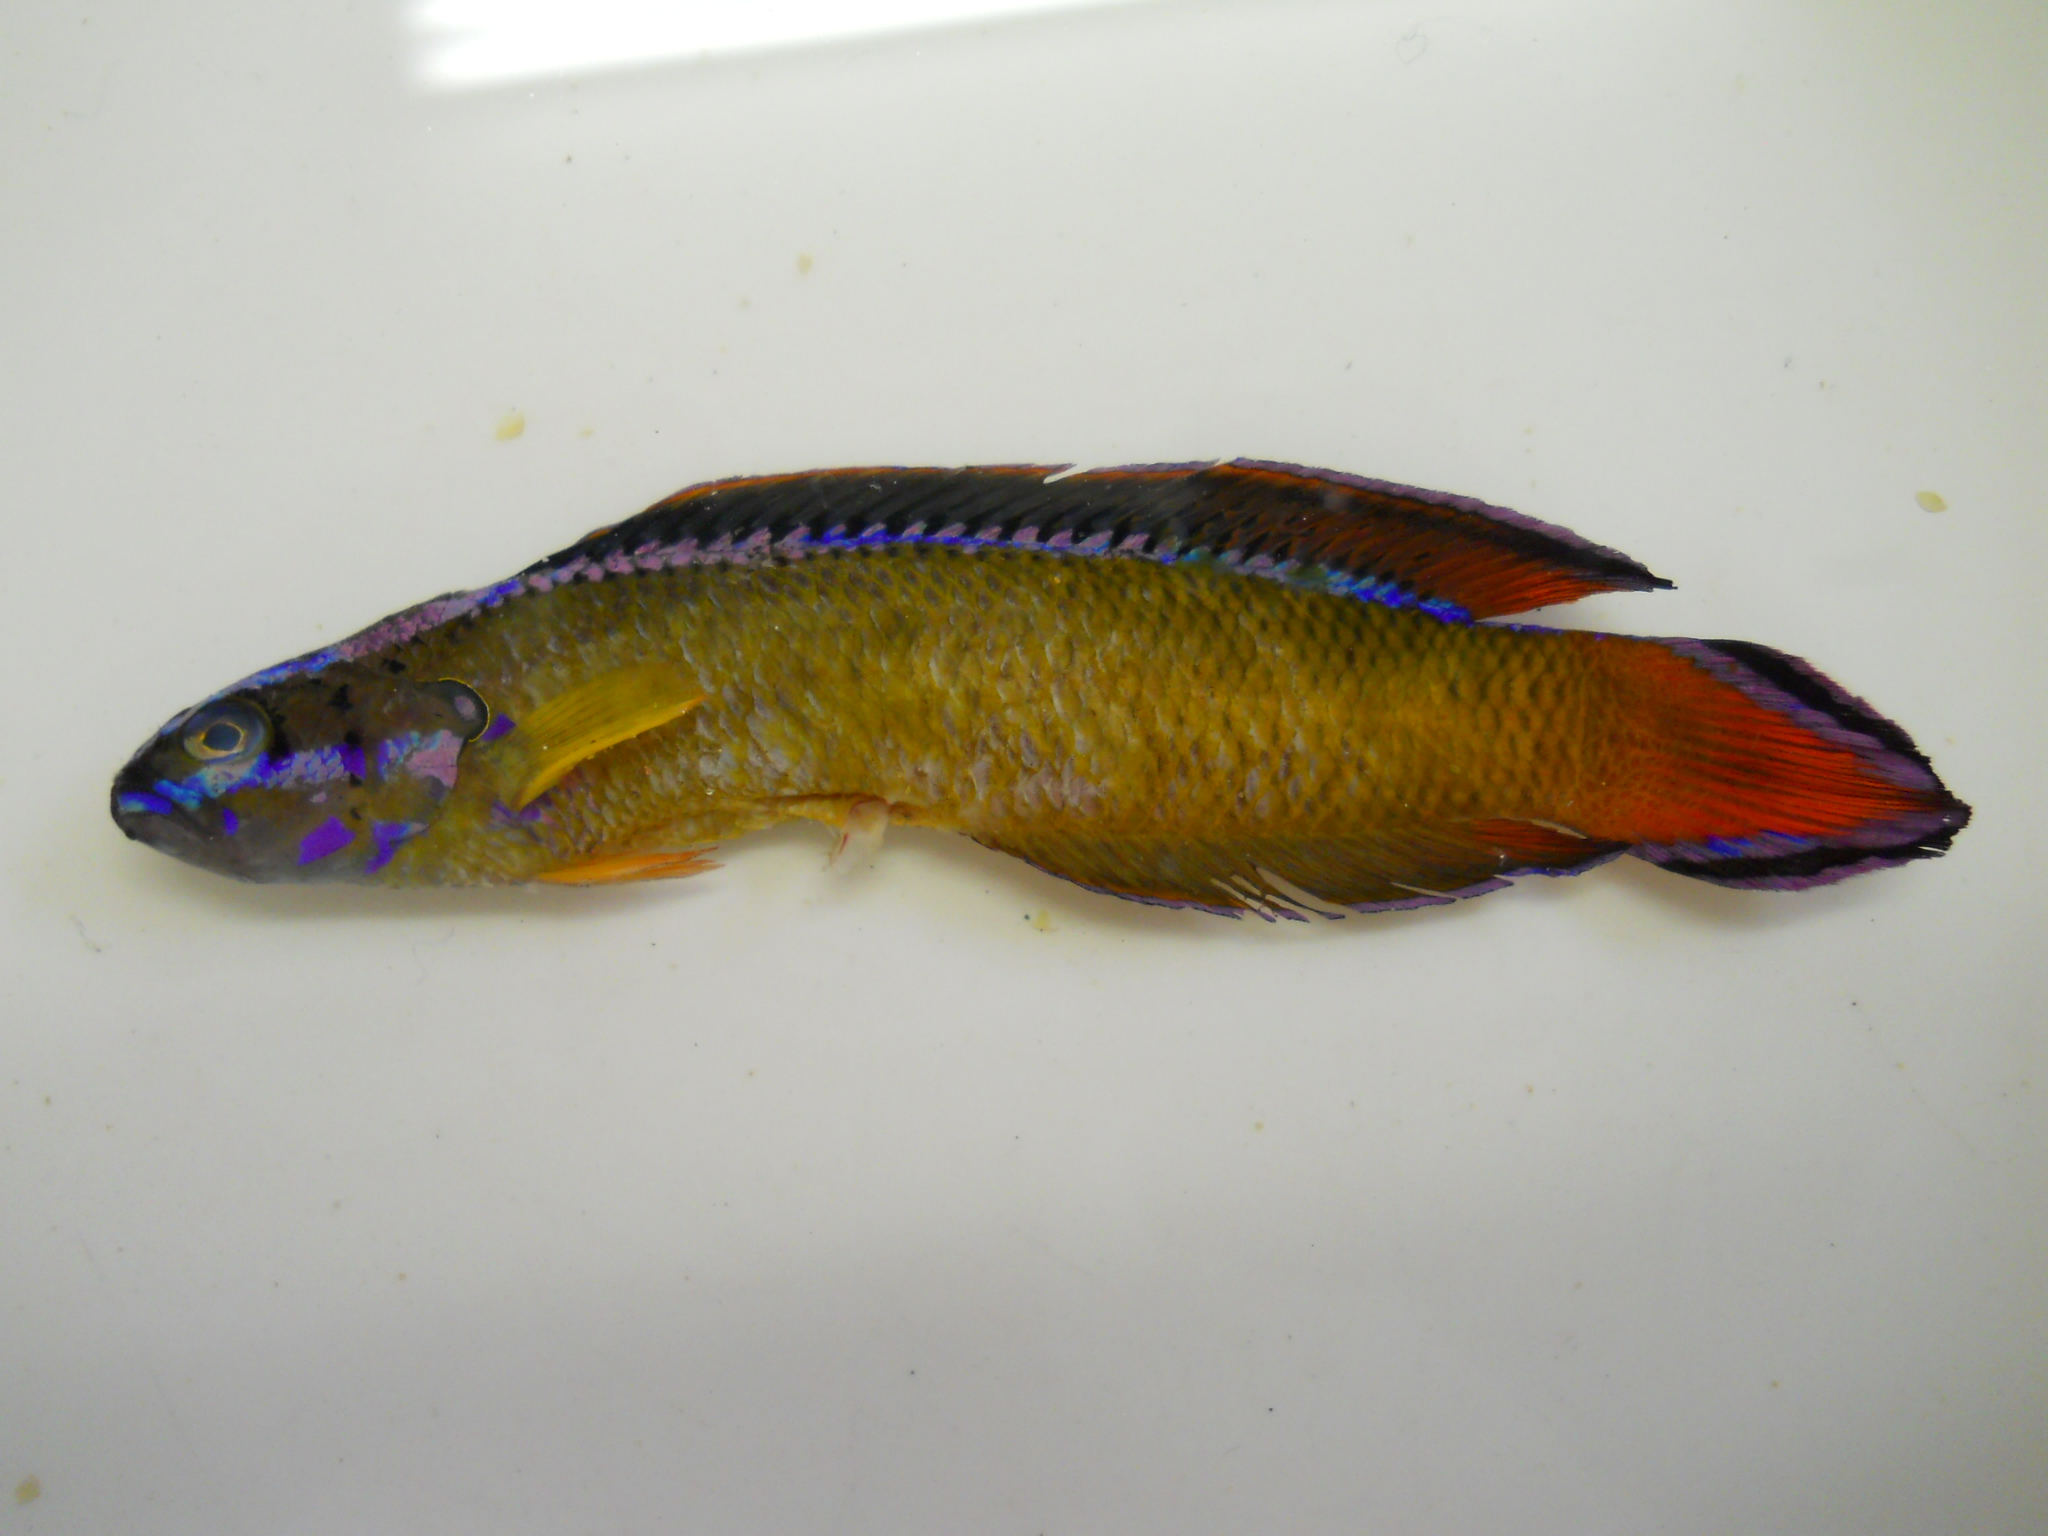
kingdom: Animalia
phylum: Chordata
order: Perciformes
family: Pseudochromidae
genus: Pseudochromis
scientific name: Pseudochromis dutoiti
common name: Dutoiti
